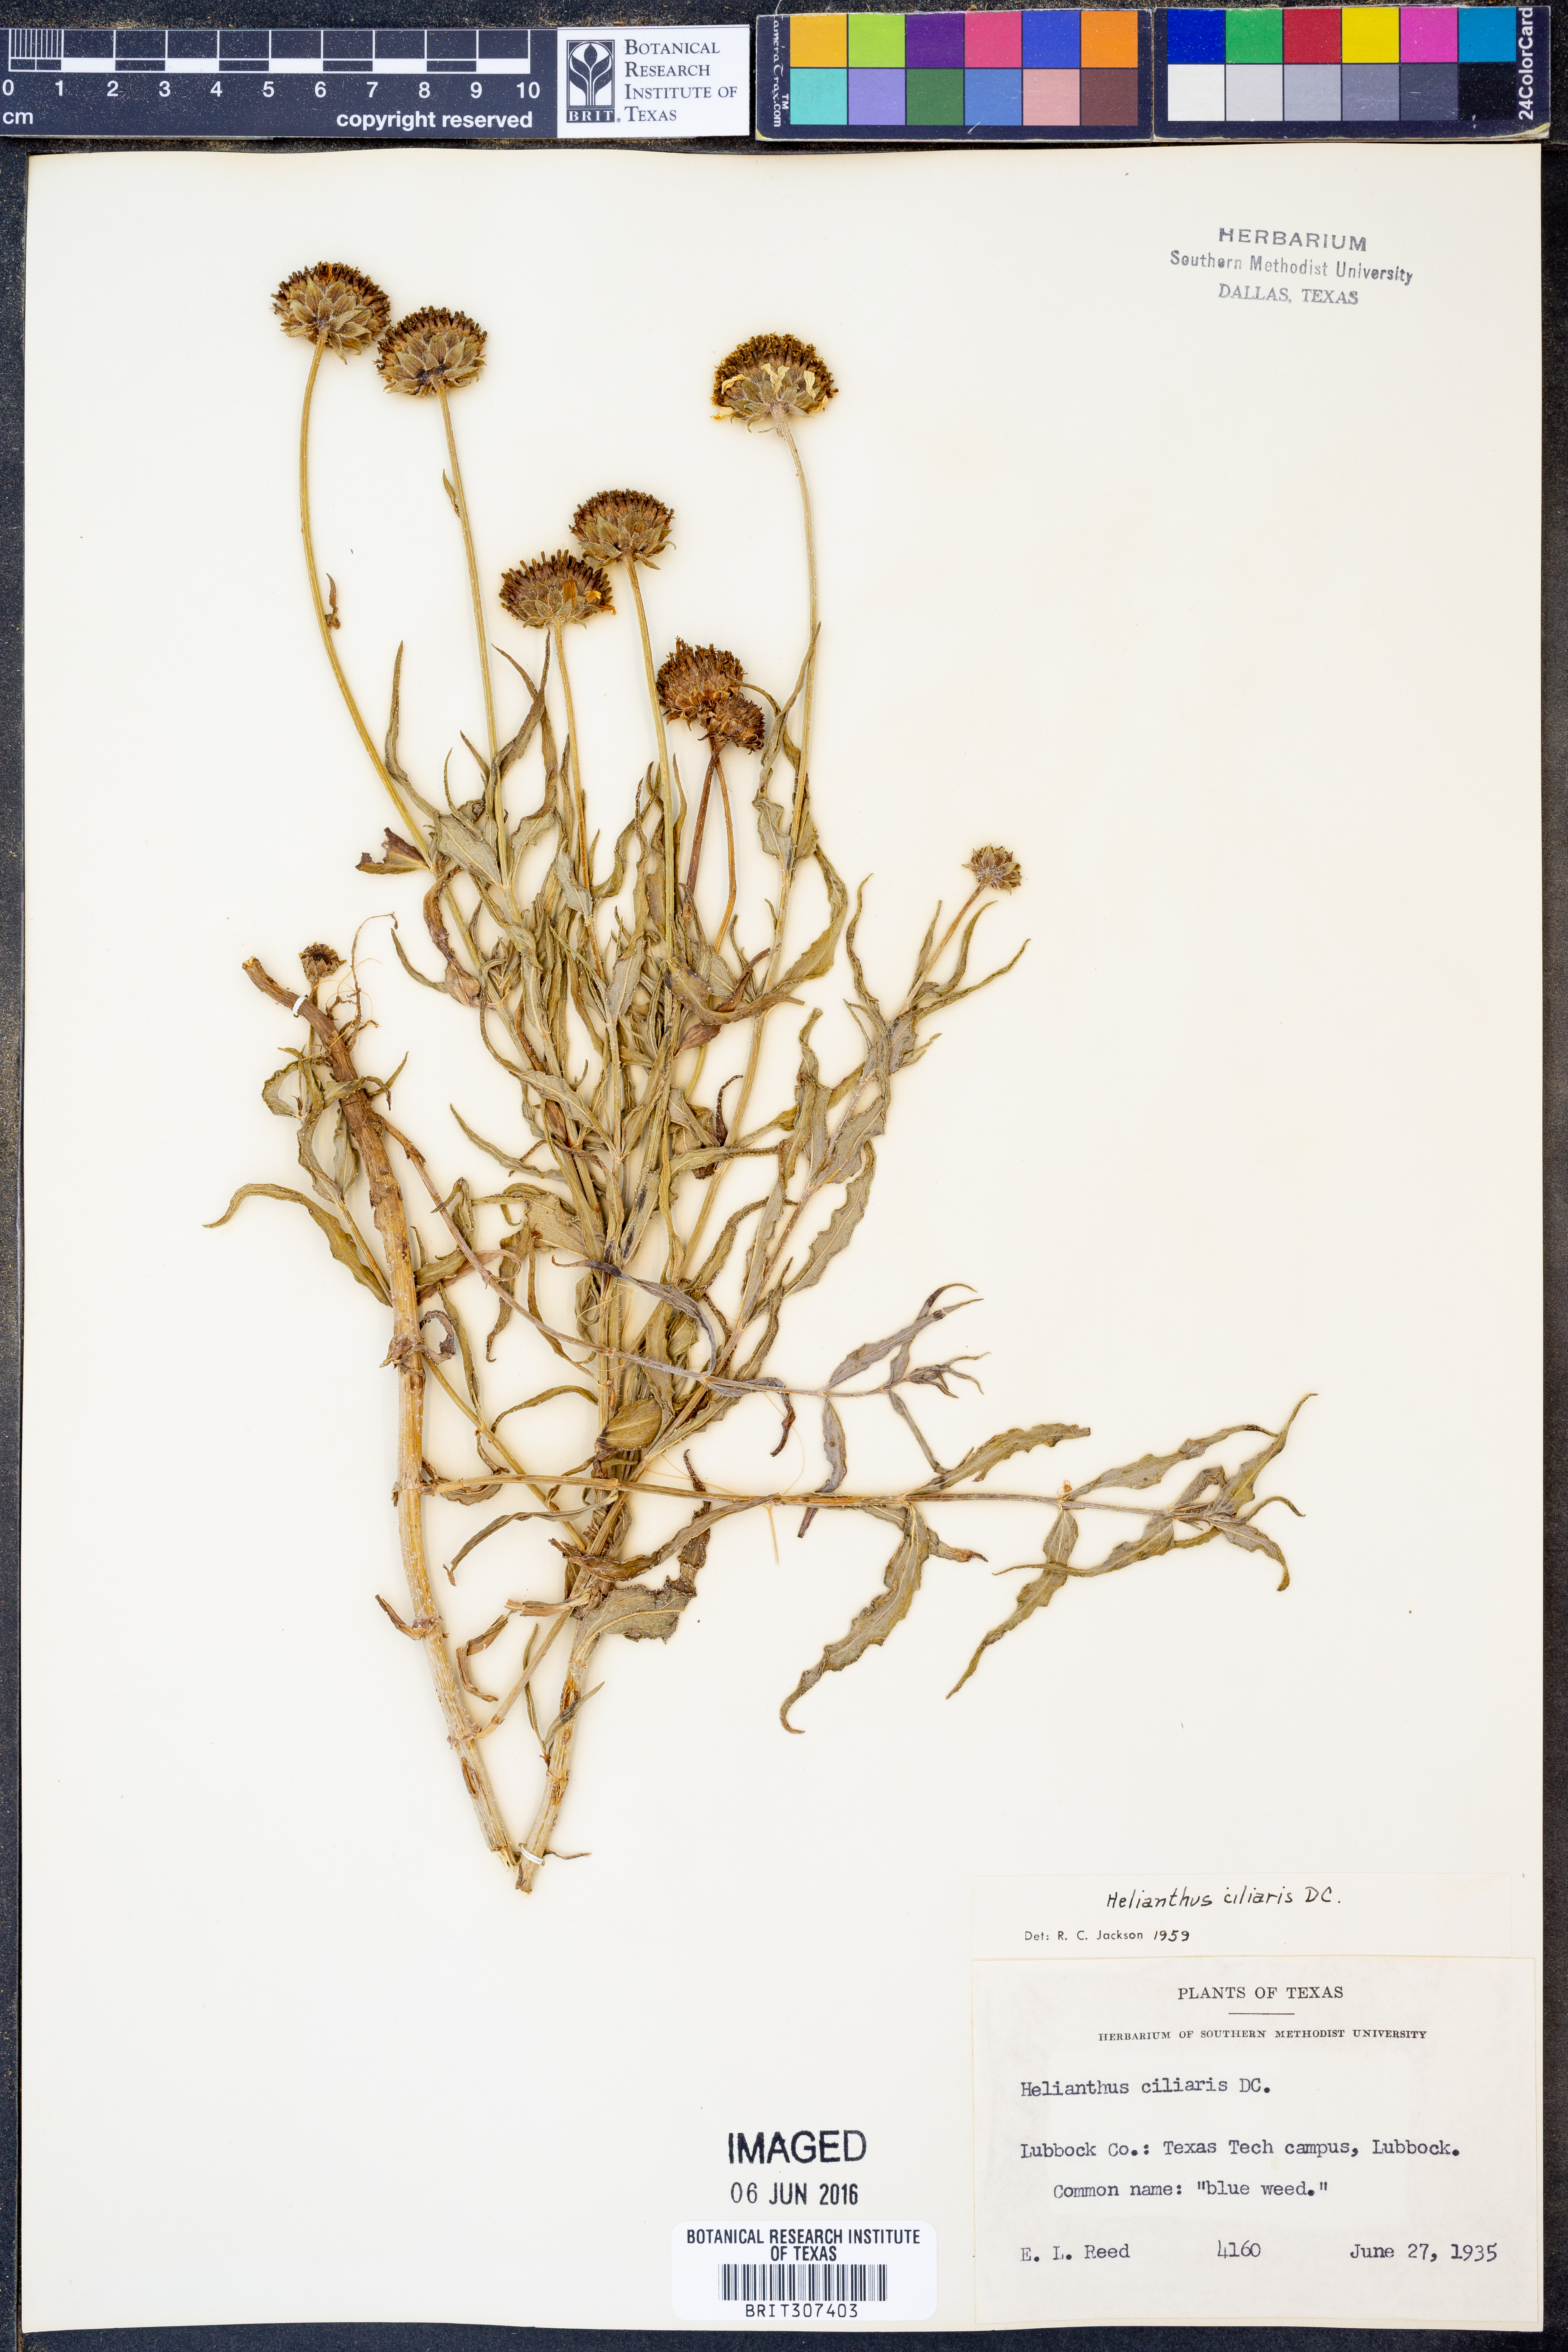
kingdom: Plantae
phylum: Tracheophyta
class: Magnoliopsida
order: Asterales
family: Asteraceae
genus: Helianthus
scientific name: Helianthus ciliaris
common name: Texas blueweed
